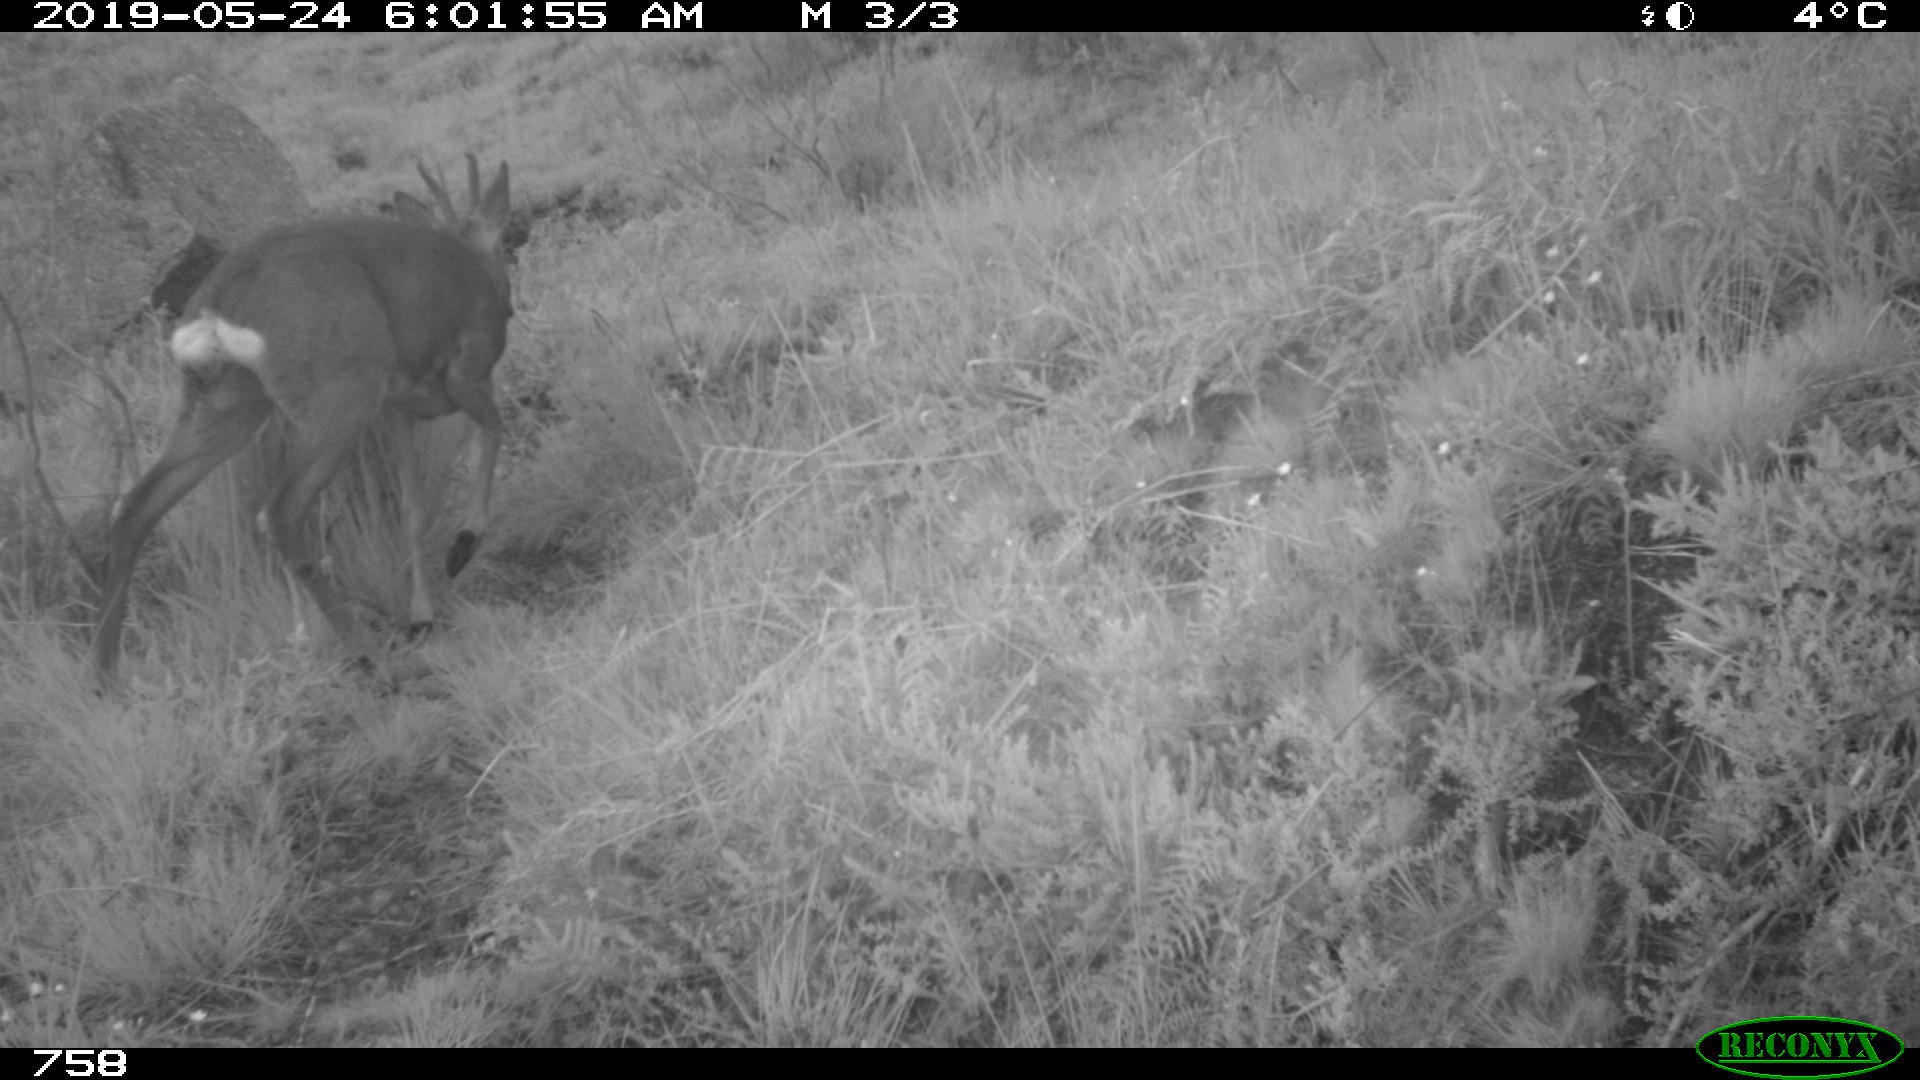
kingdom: Animalia
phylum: Chordata
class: Mammalia
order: Artiodactyla
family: Cervidae
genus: Capreolus
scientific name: Capreolus capreolus
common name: Western roe deer
